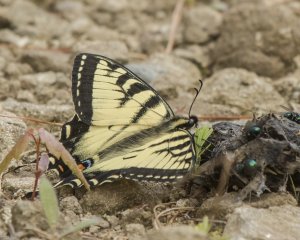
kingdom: Animalia
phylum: Arthropoda
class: Insecta
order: Lepidoptera
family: Papilionidae
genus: Pterourus
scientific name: Pterourus canadensis
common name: Canadian Tiger Swallowtail
